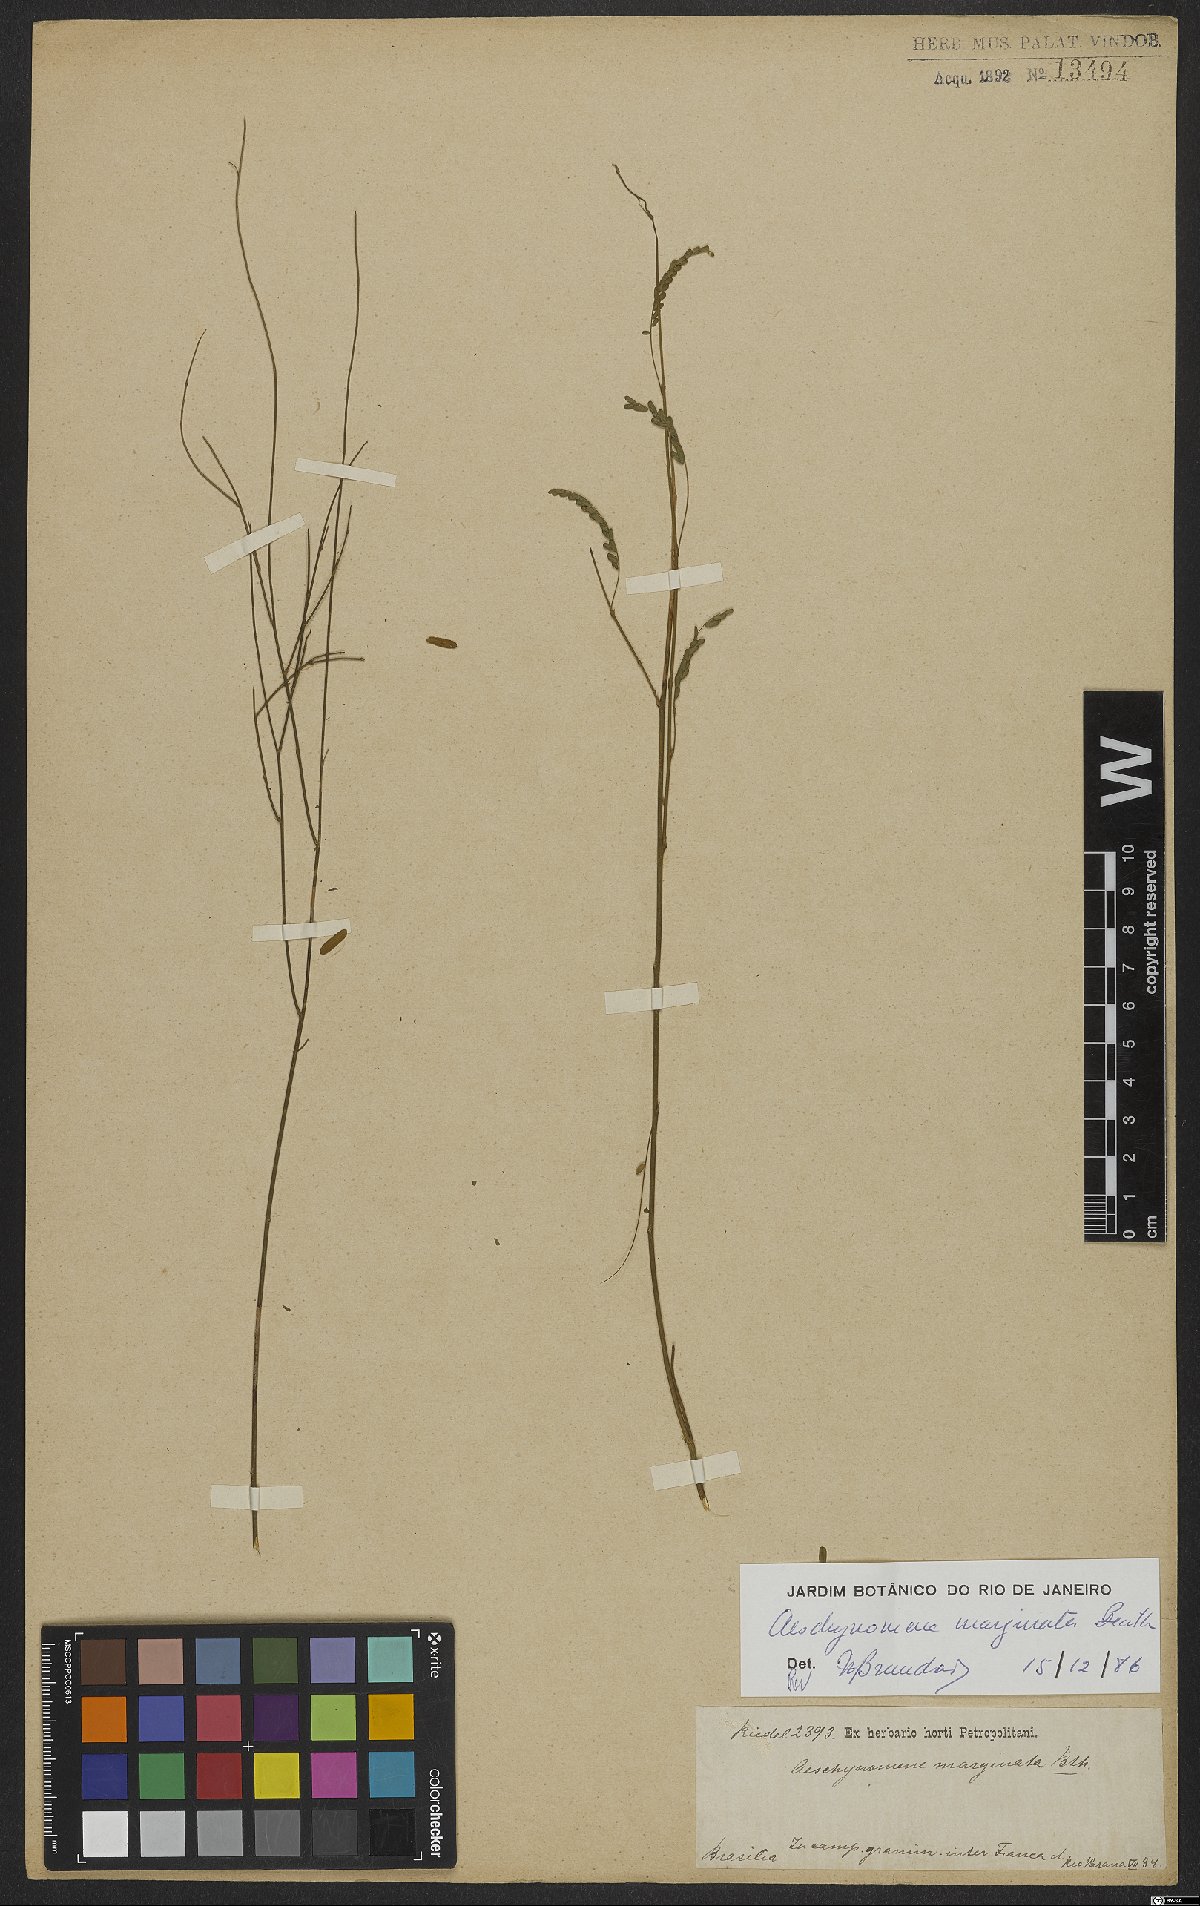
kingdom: Plantae
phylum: Tracheophyta
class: Magnoliopsida
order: Fabales
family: Fabaceae
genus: Ctenodon
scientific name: Ctenodon marginatus
